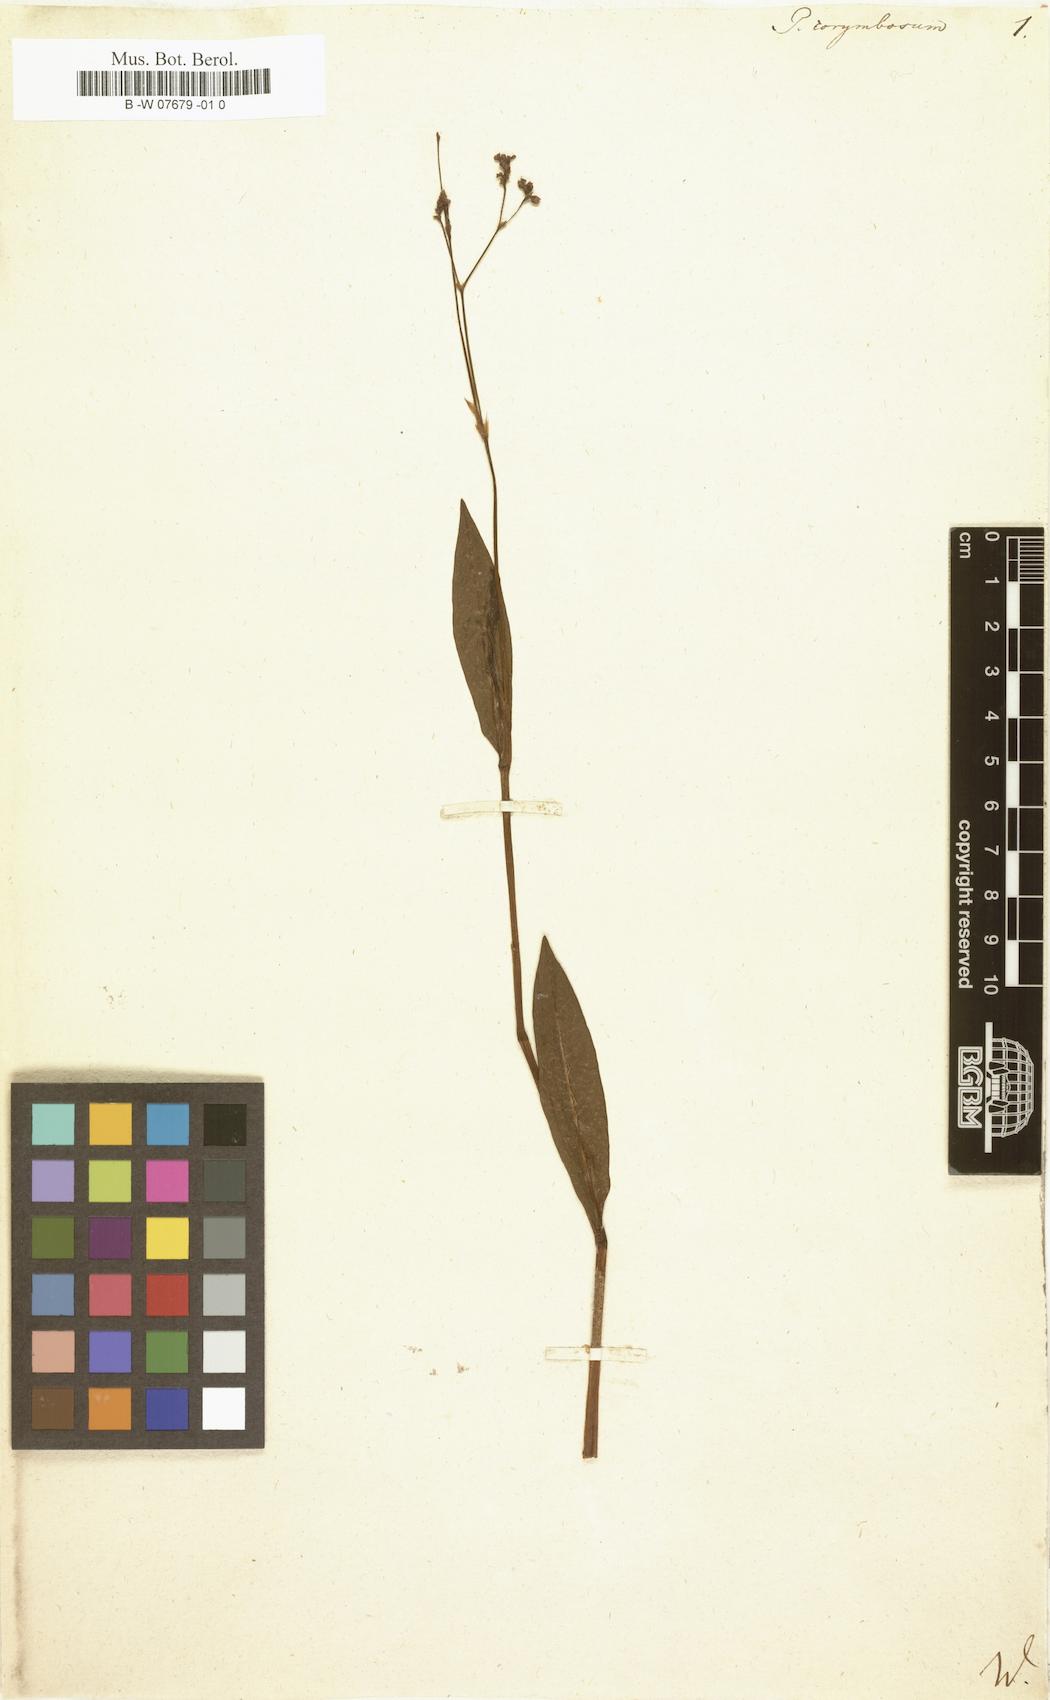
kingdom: Plantae
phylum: Tracheophyta
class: Magnoliopsida
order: Caryophyllales
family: Polygonaceae
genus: Persicaria
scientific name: Persicaria chinensis
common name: Chinese knotweed
